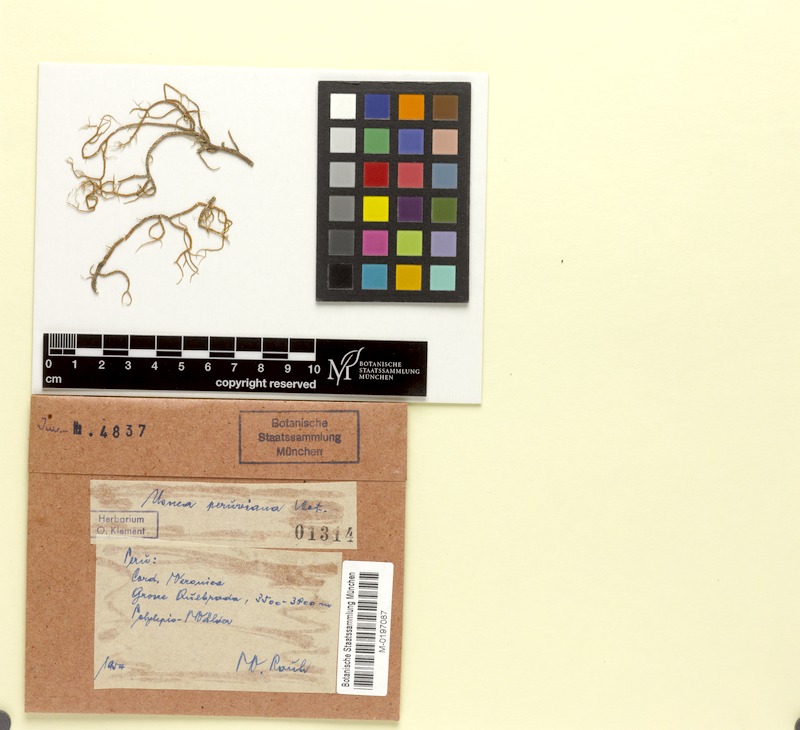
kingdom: Fungi
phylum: Ascomycota
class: Lecanoromycetes
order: Lecanorales
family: Parmeliaceae
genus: Usnea
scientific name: Usnea
